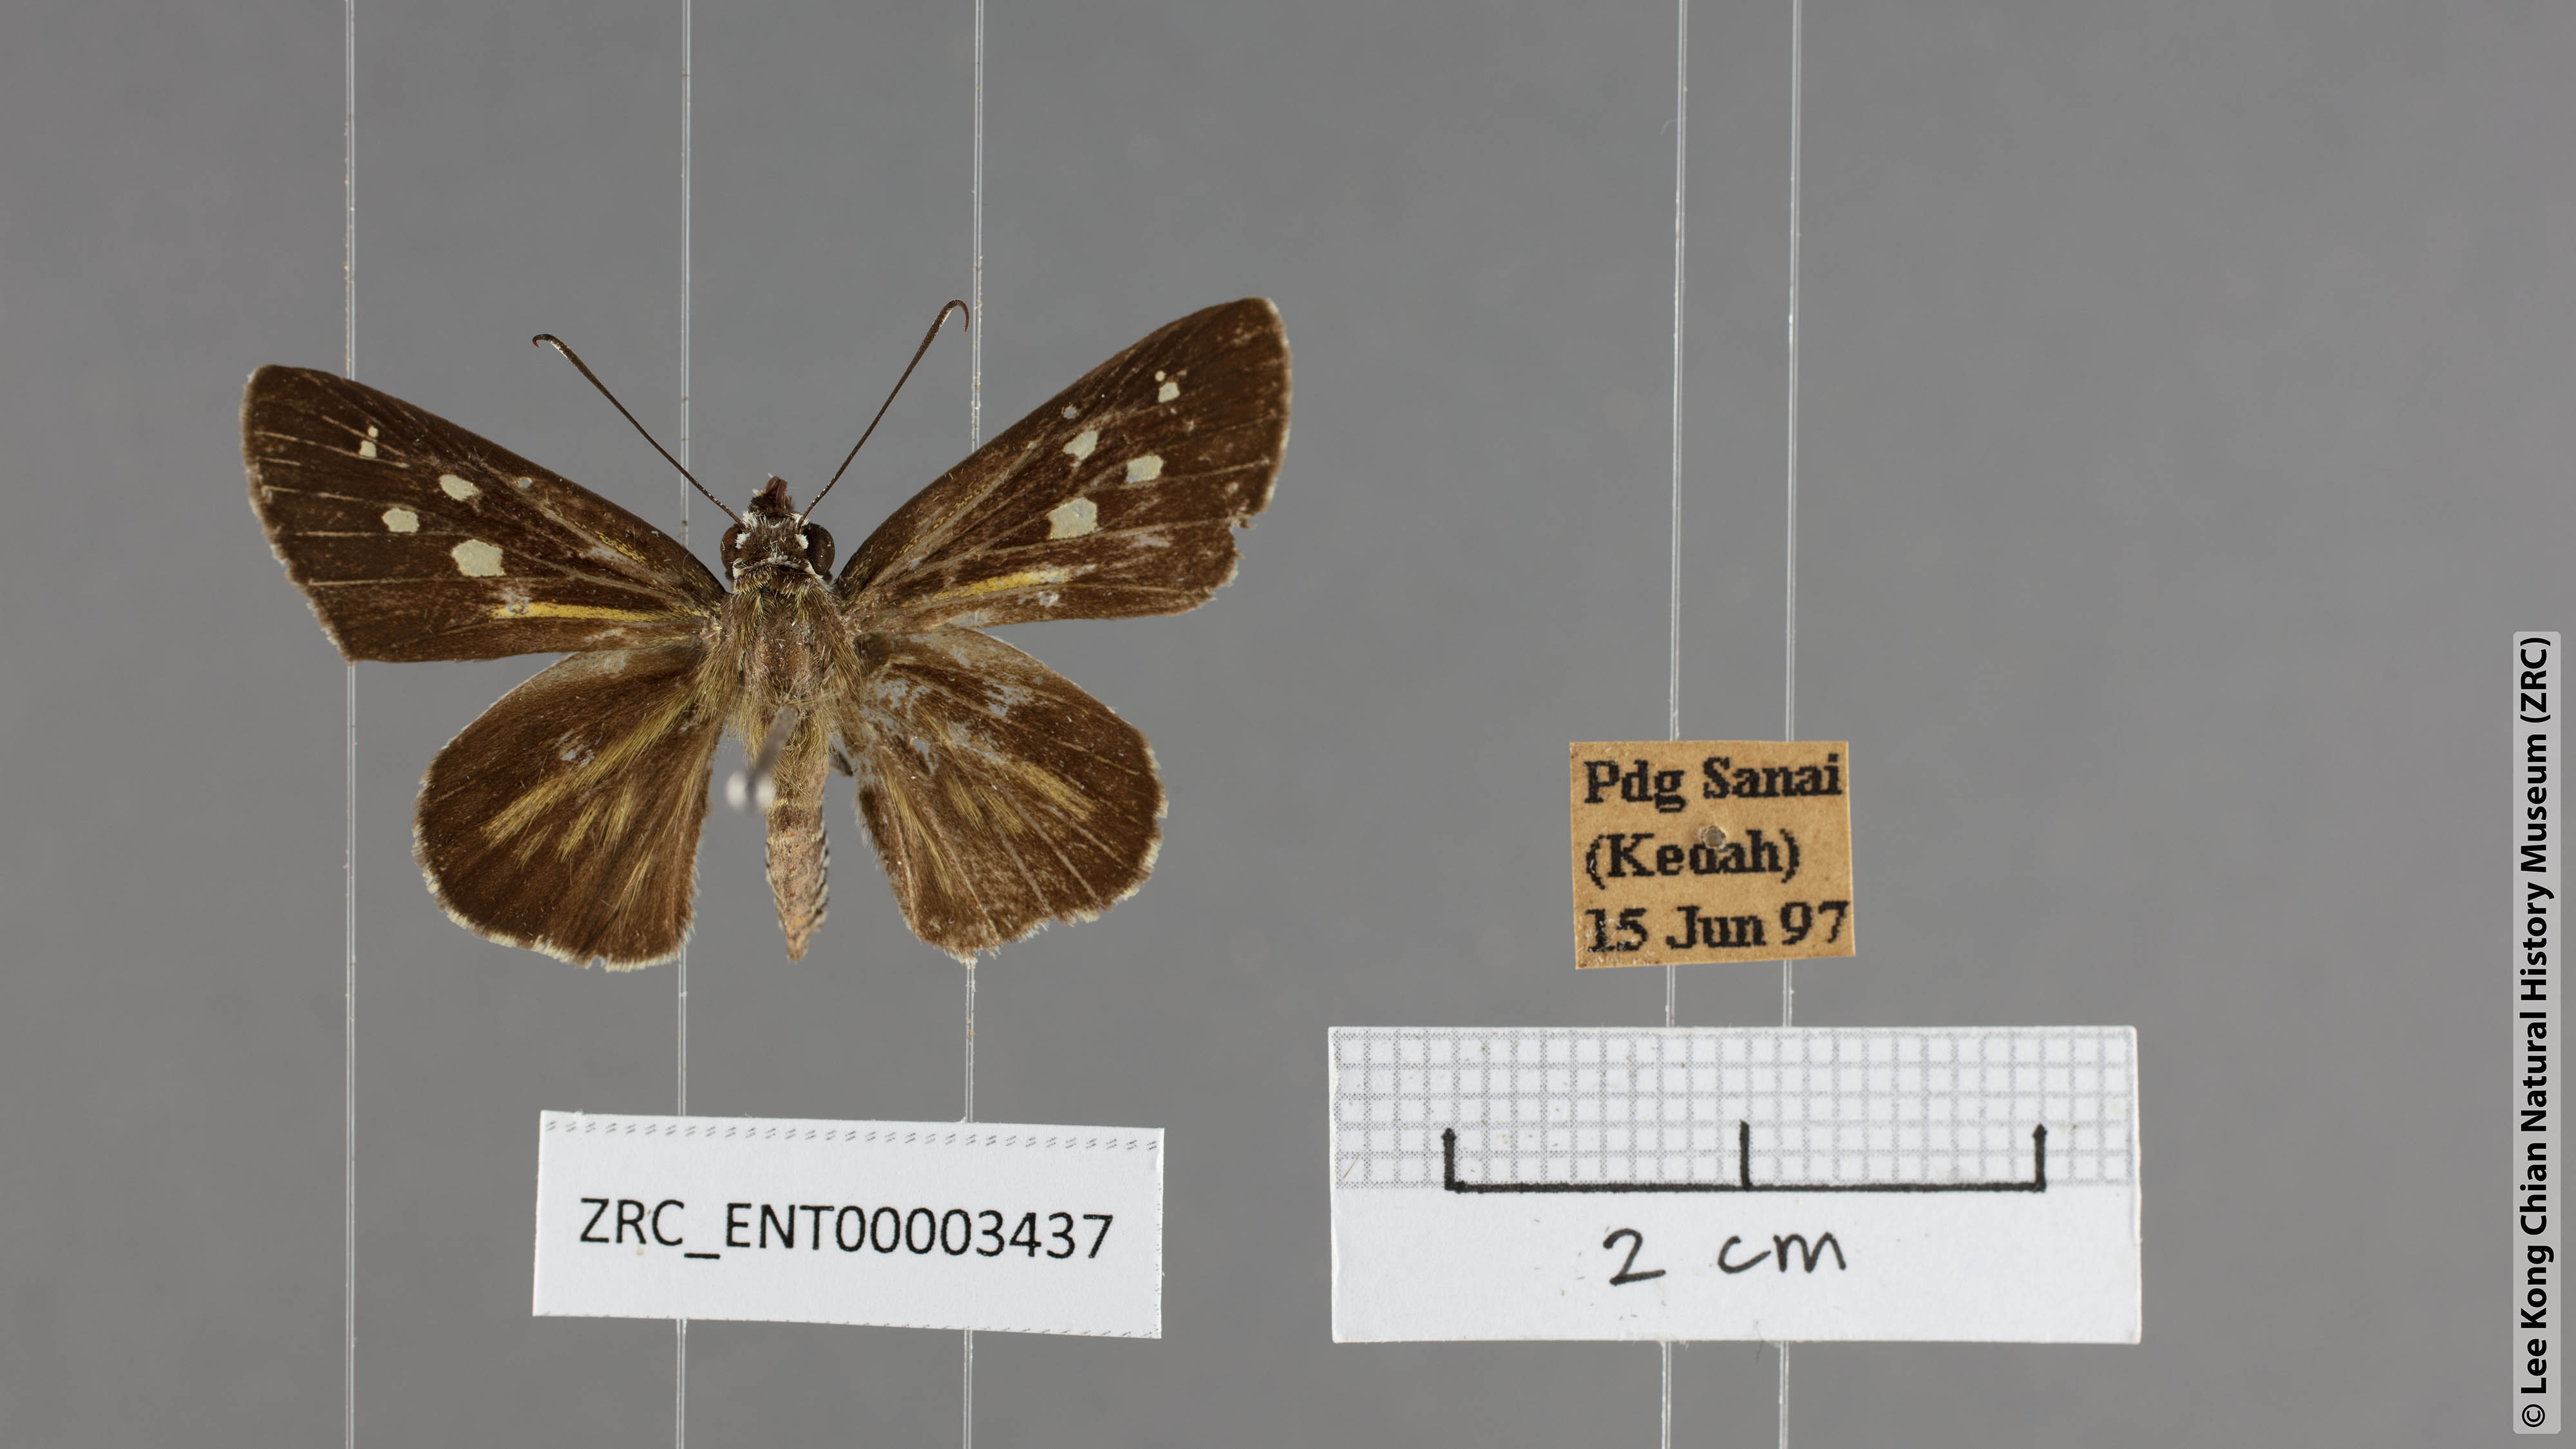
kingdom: Animalia
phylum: Arthropoda
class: Insecta
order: Lepidoptera
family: Hesperiidae
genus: Plastingia
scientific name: Plastingia naga
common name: Chequered lancer
